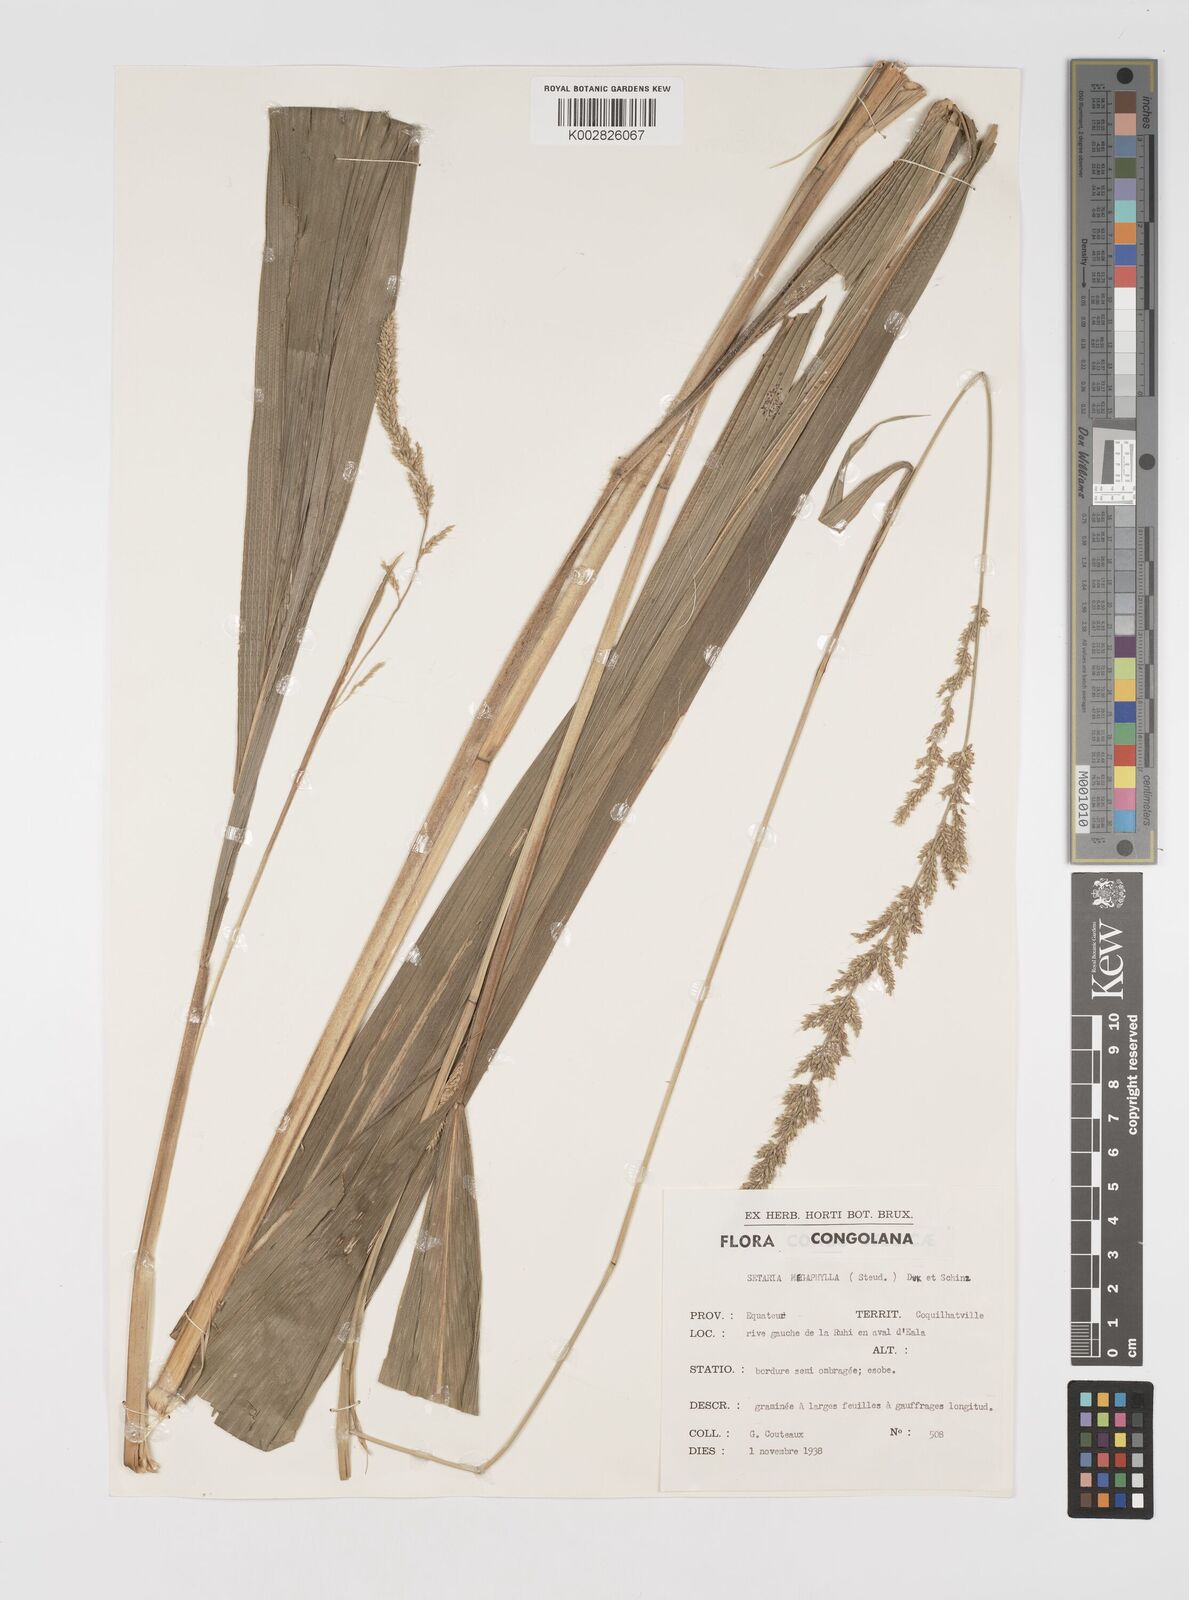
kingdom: Plantae
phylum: Tracheophyta
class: Liliopsida
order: Poales
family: Poaceae
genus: Setaria
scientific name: Setaria megaphylla
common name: Bigleaf bristlegrass
